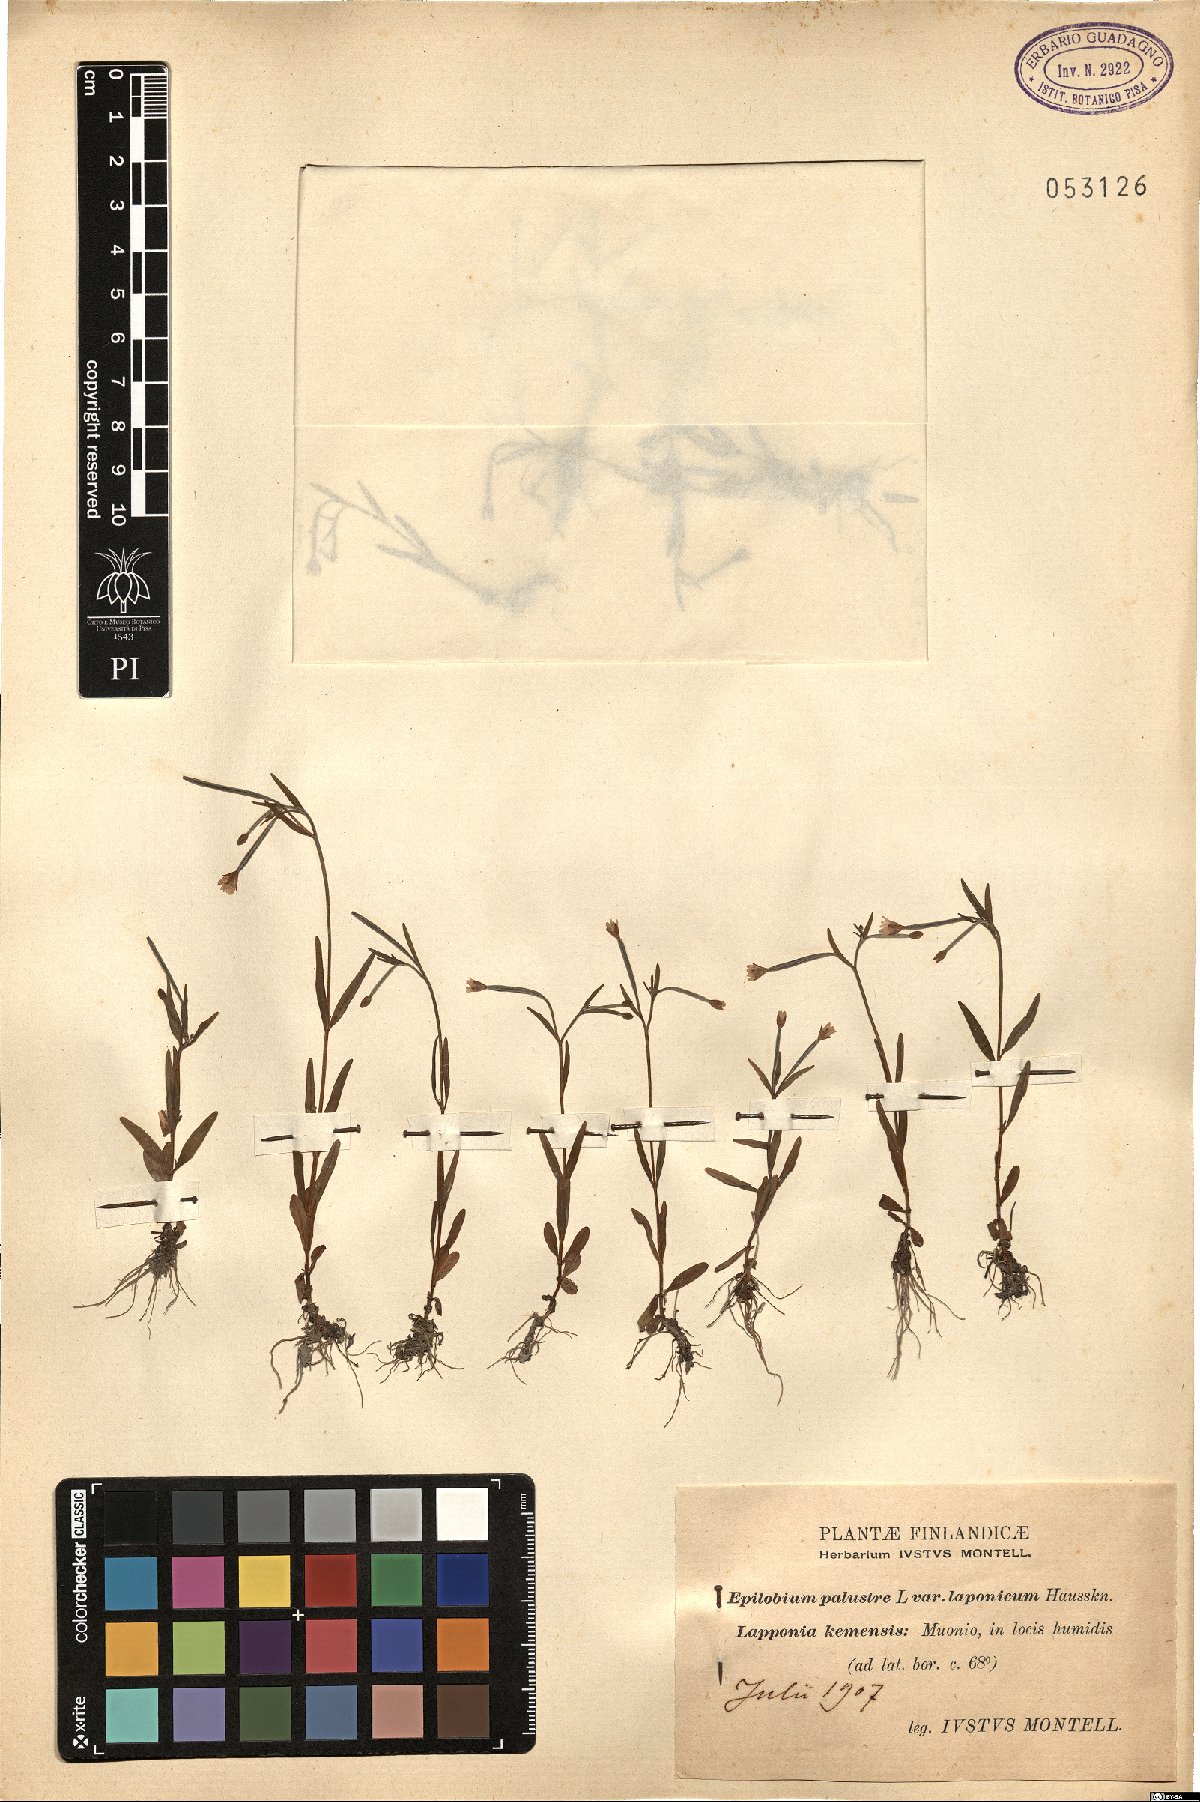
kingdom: Plantae
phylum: Tracheophyta
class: Magnoliopsida
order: Myrtales
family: Onagraceae
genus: Epilobium
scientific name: Epilobium palustre
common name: Marsh willowherb
